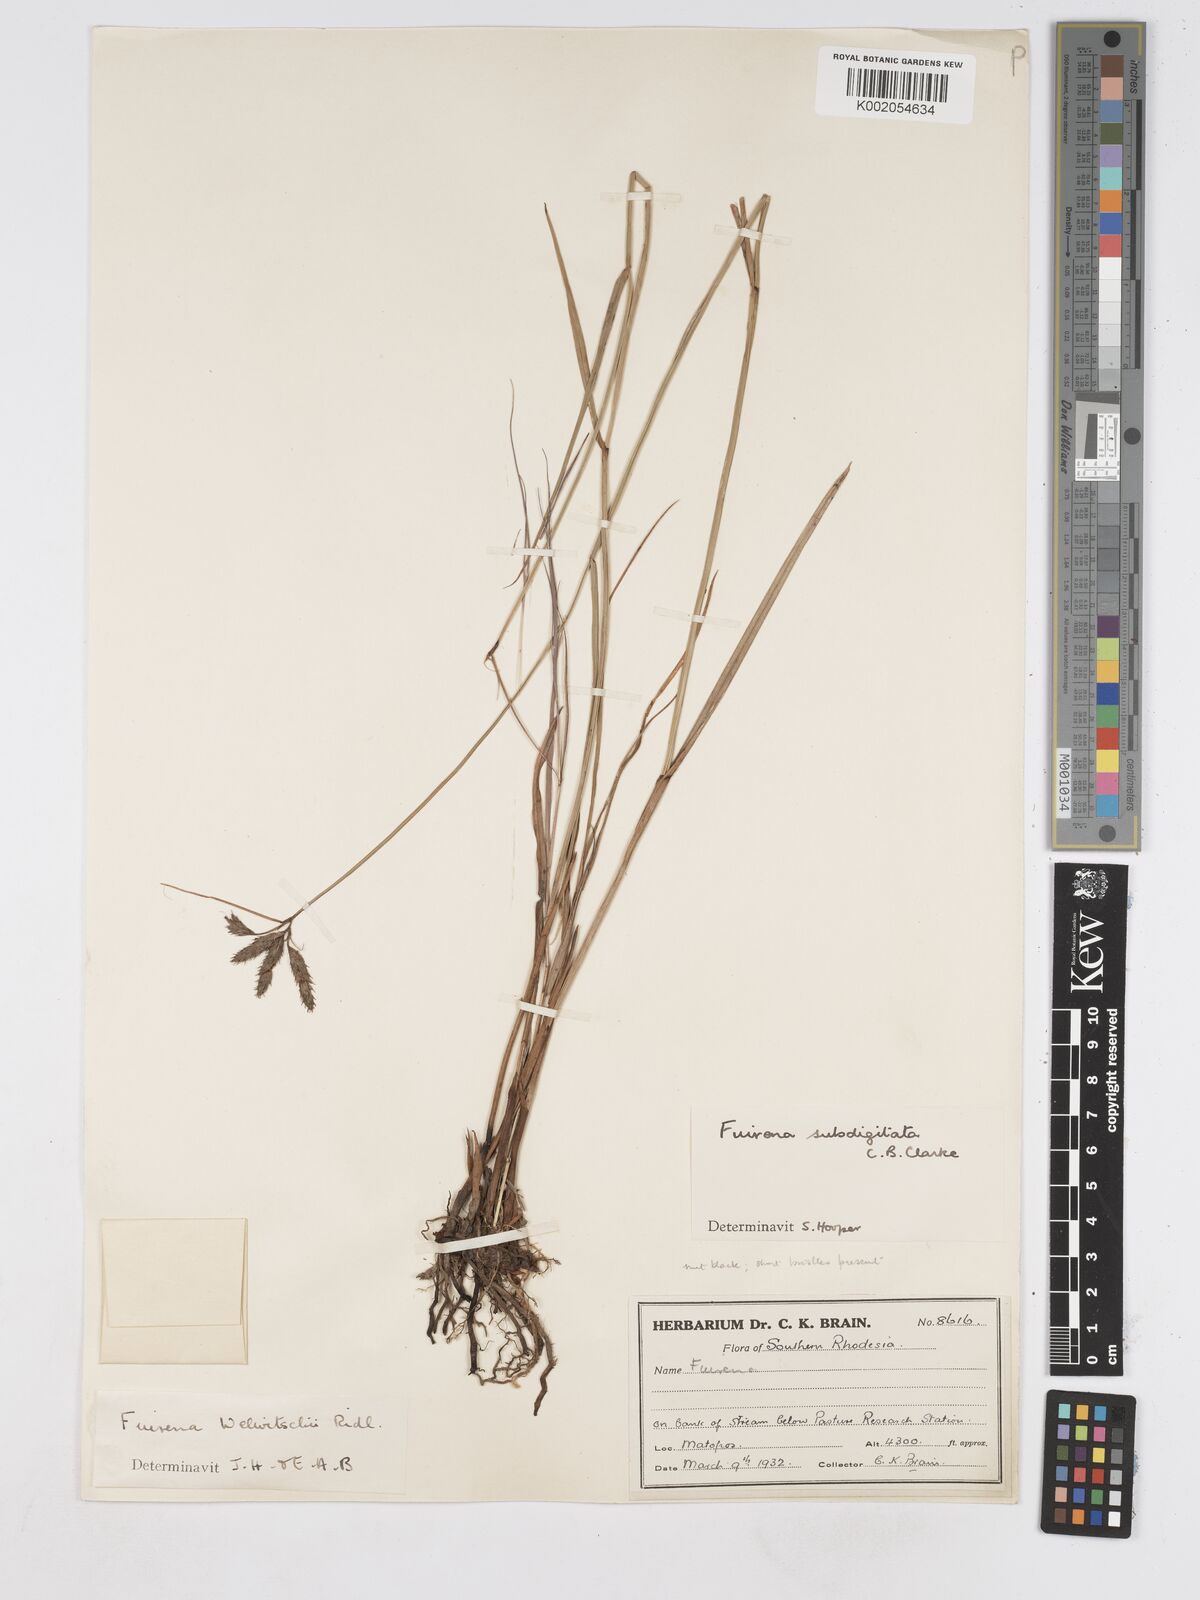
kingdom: Plantae
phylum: Tracheophyta
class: Liliopsida
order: Poales
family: Cyperaceae
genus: Fuirena
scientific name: Fuirena coerulescens
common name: Blue umbrella-sedge
